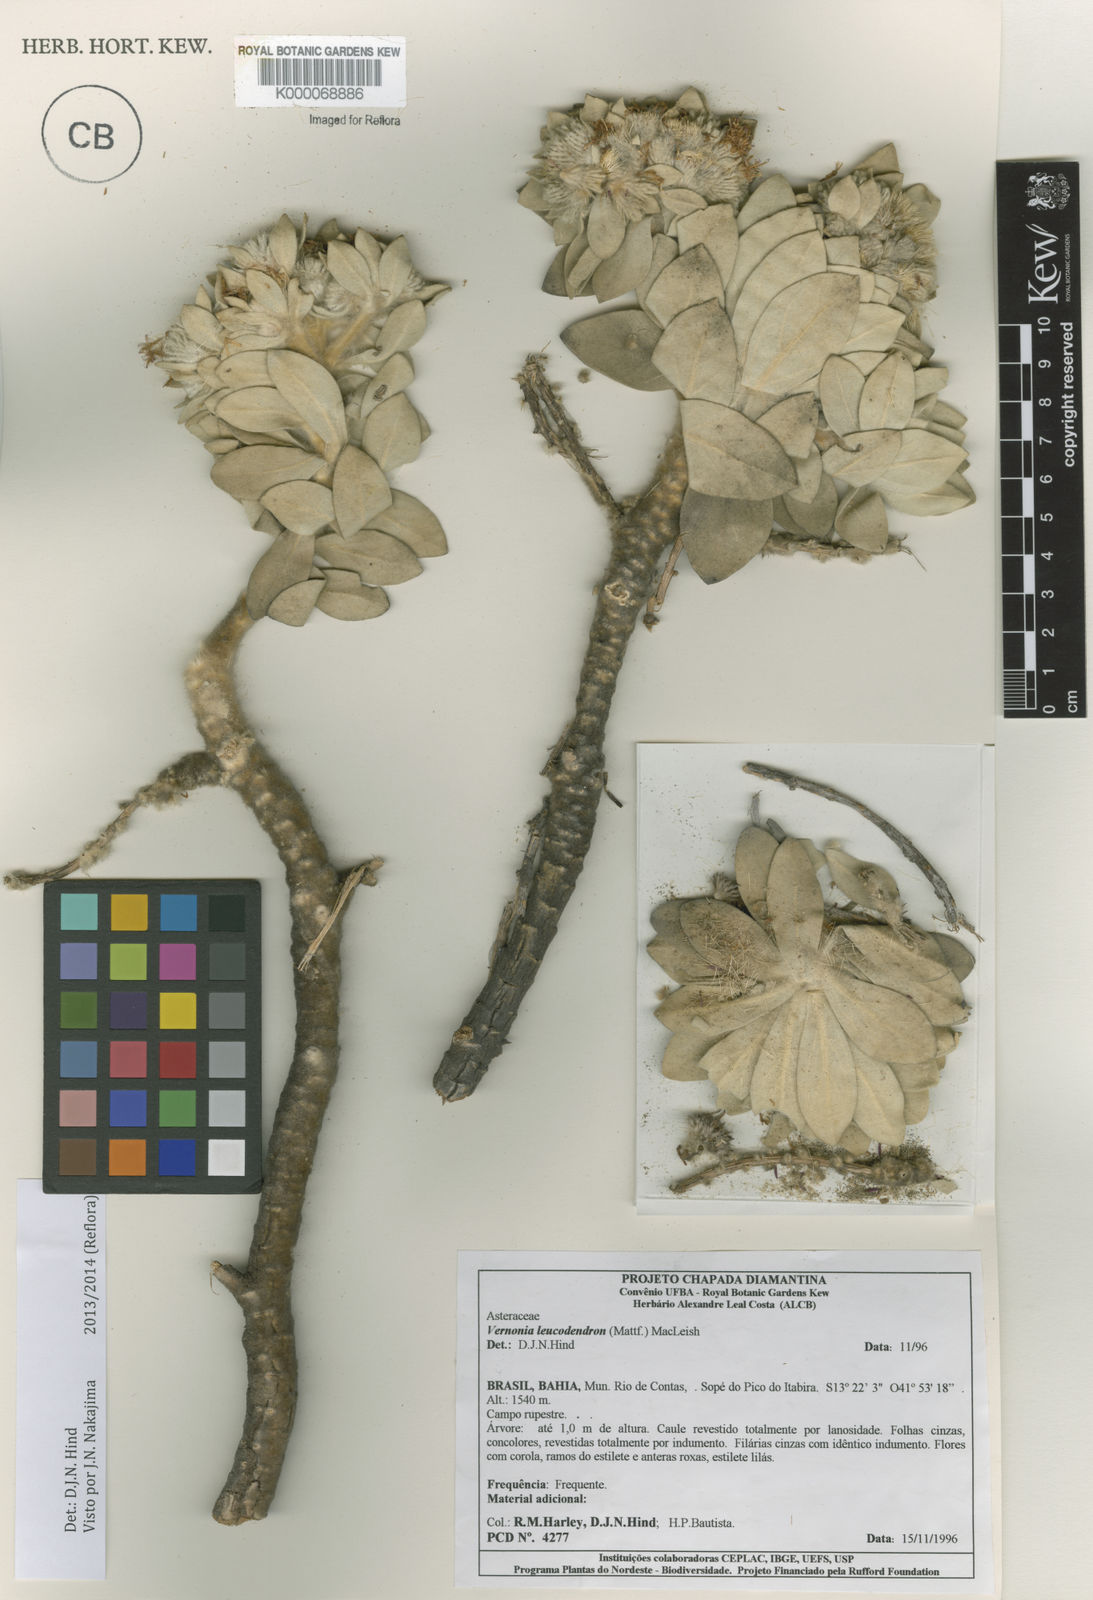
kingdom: Plantae
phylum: Tracheophyta
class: Magnoliopsida
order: Asterales
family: Asteraceae
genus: Lychnophorella
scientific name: Lychnophorella leucodendron
